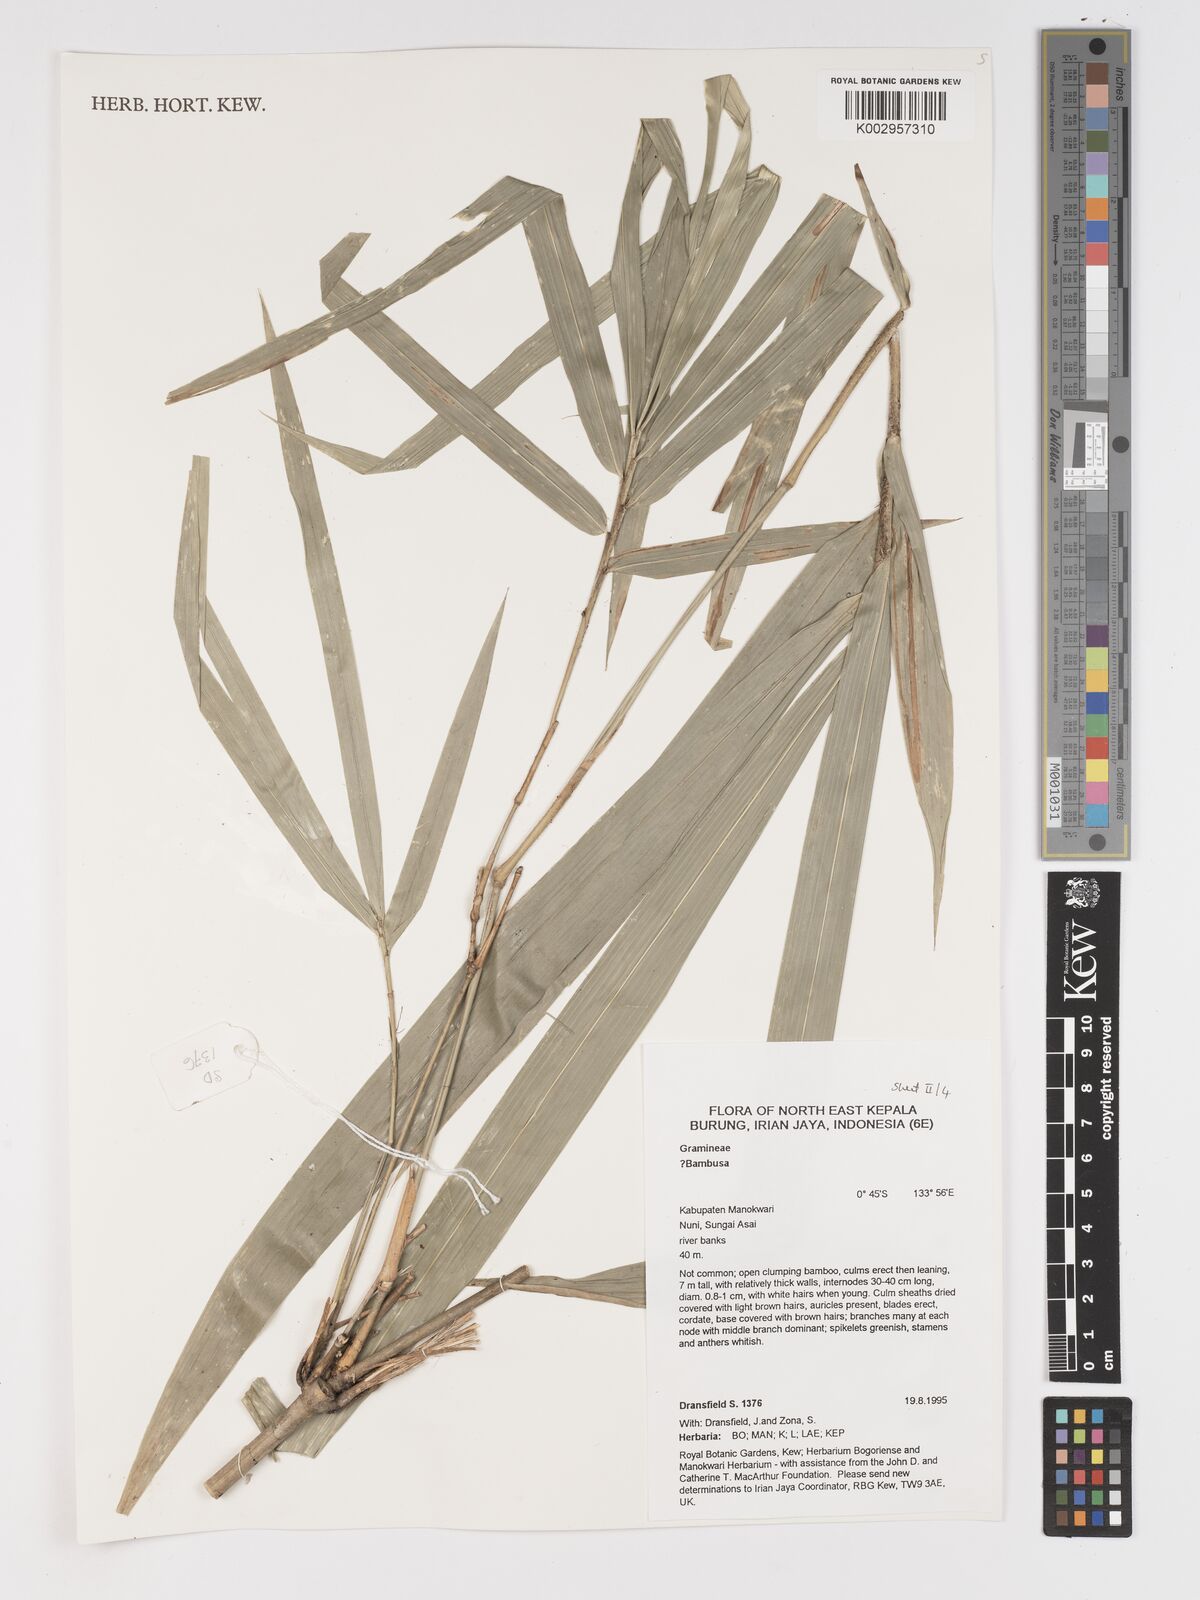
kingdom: Plantae
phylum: Tracheophyta
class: Liliopsida
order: Poales
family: Poaceae
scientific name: Poaceae
